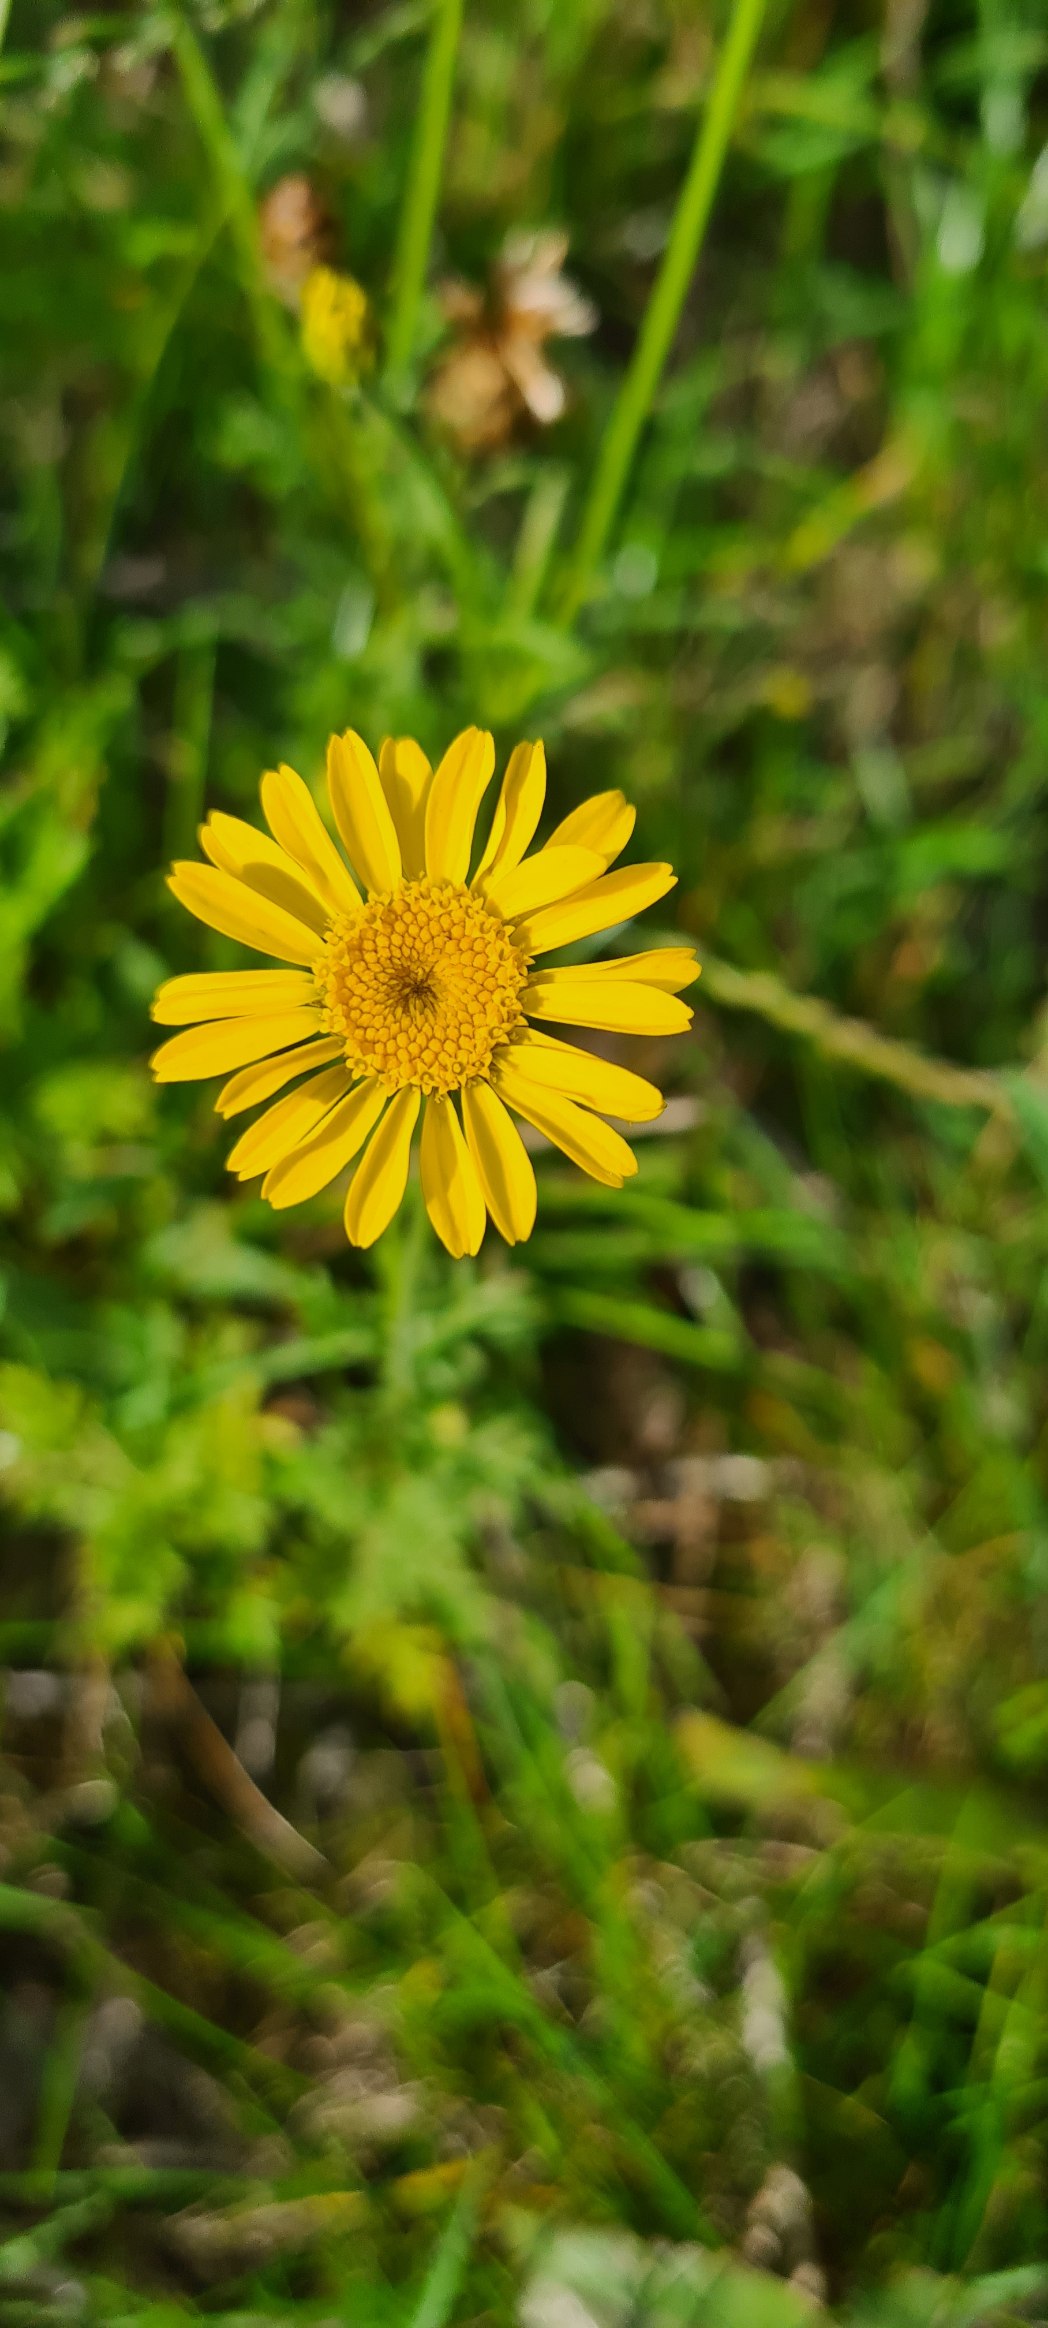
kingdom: Plantae
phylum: Tracheophyta
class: Magnoliopsida
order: Asterales
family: Asteraceae
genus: Cota
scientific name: Cota tinctoria
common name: Farve-gåseurt
